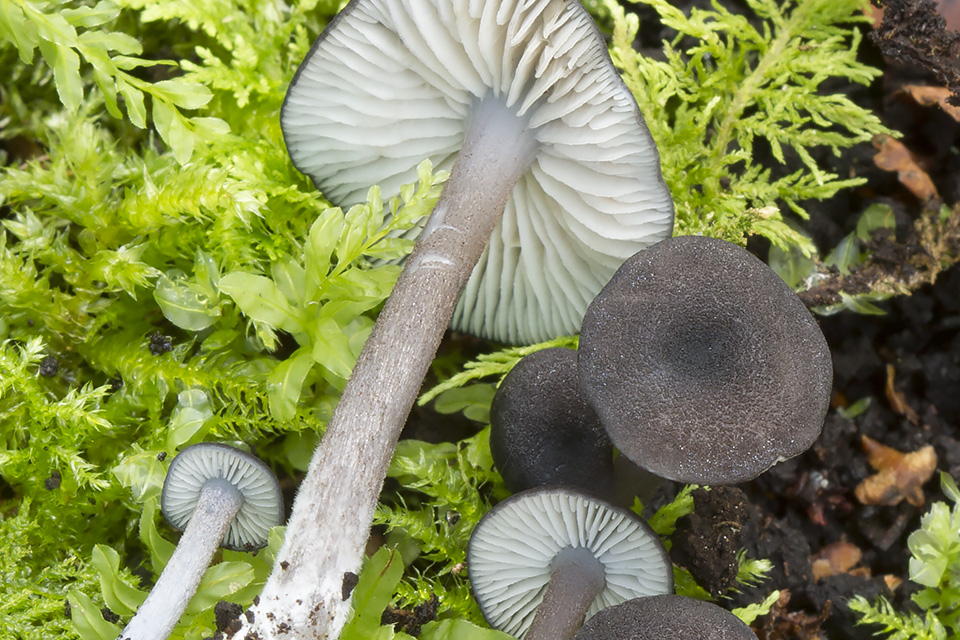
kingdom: Fungi
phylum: Basidiomycota
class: Agaricomycetes
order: Agaricales
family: Entolomataceae
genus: Entoloma
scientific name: Entoloma nordlandicum
